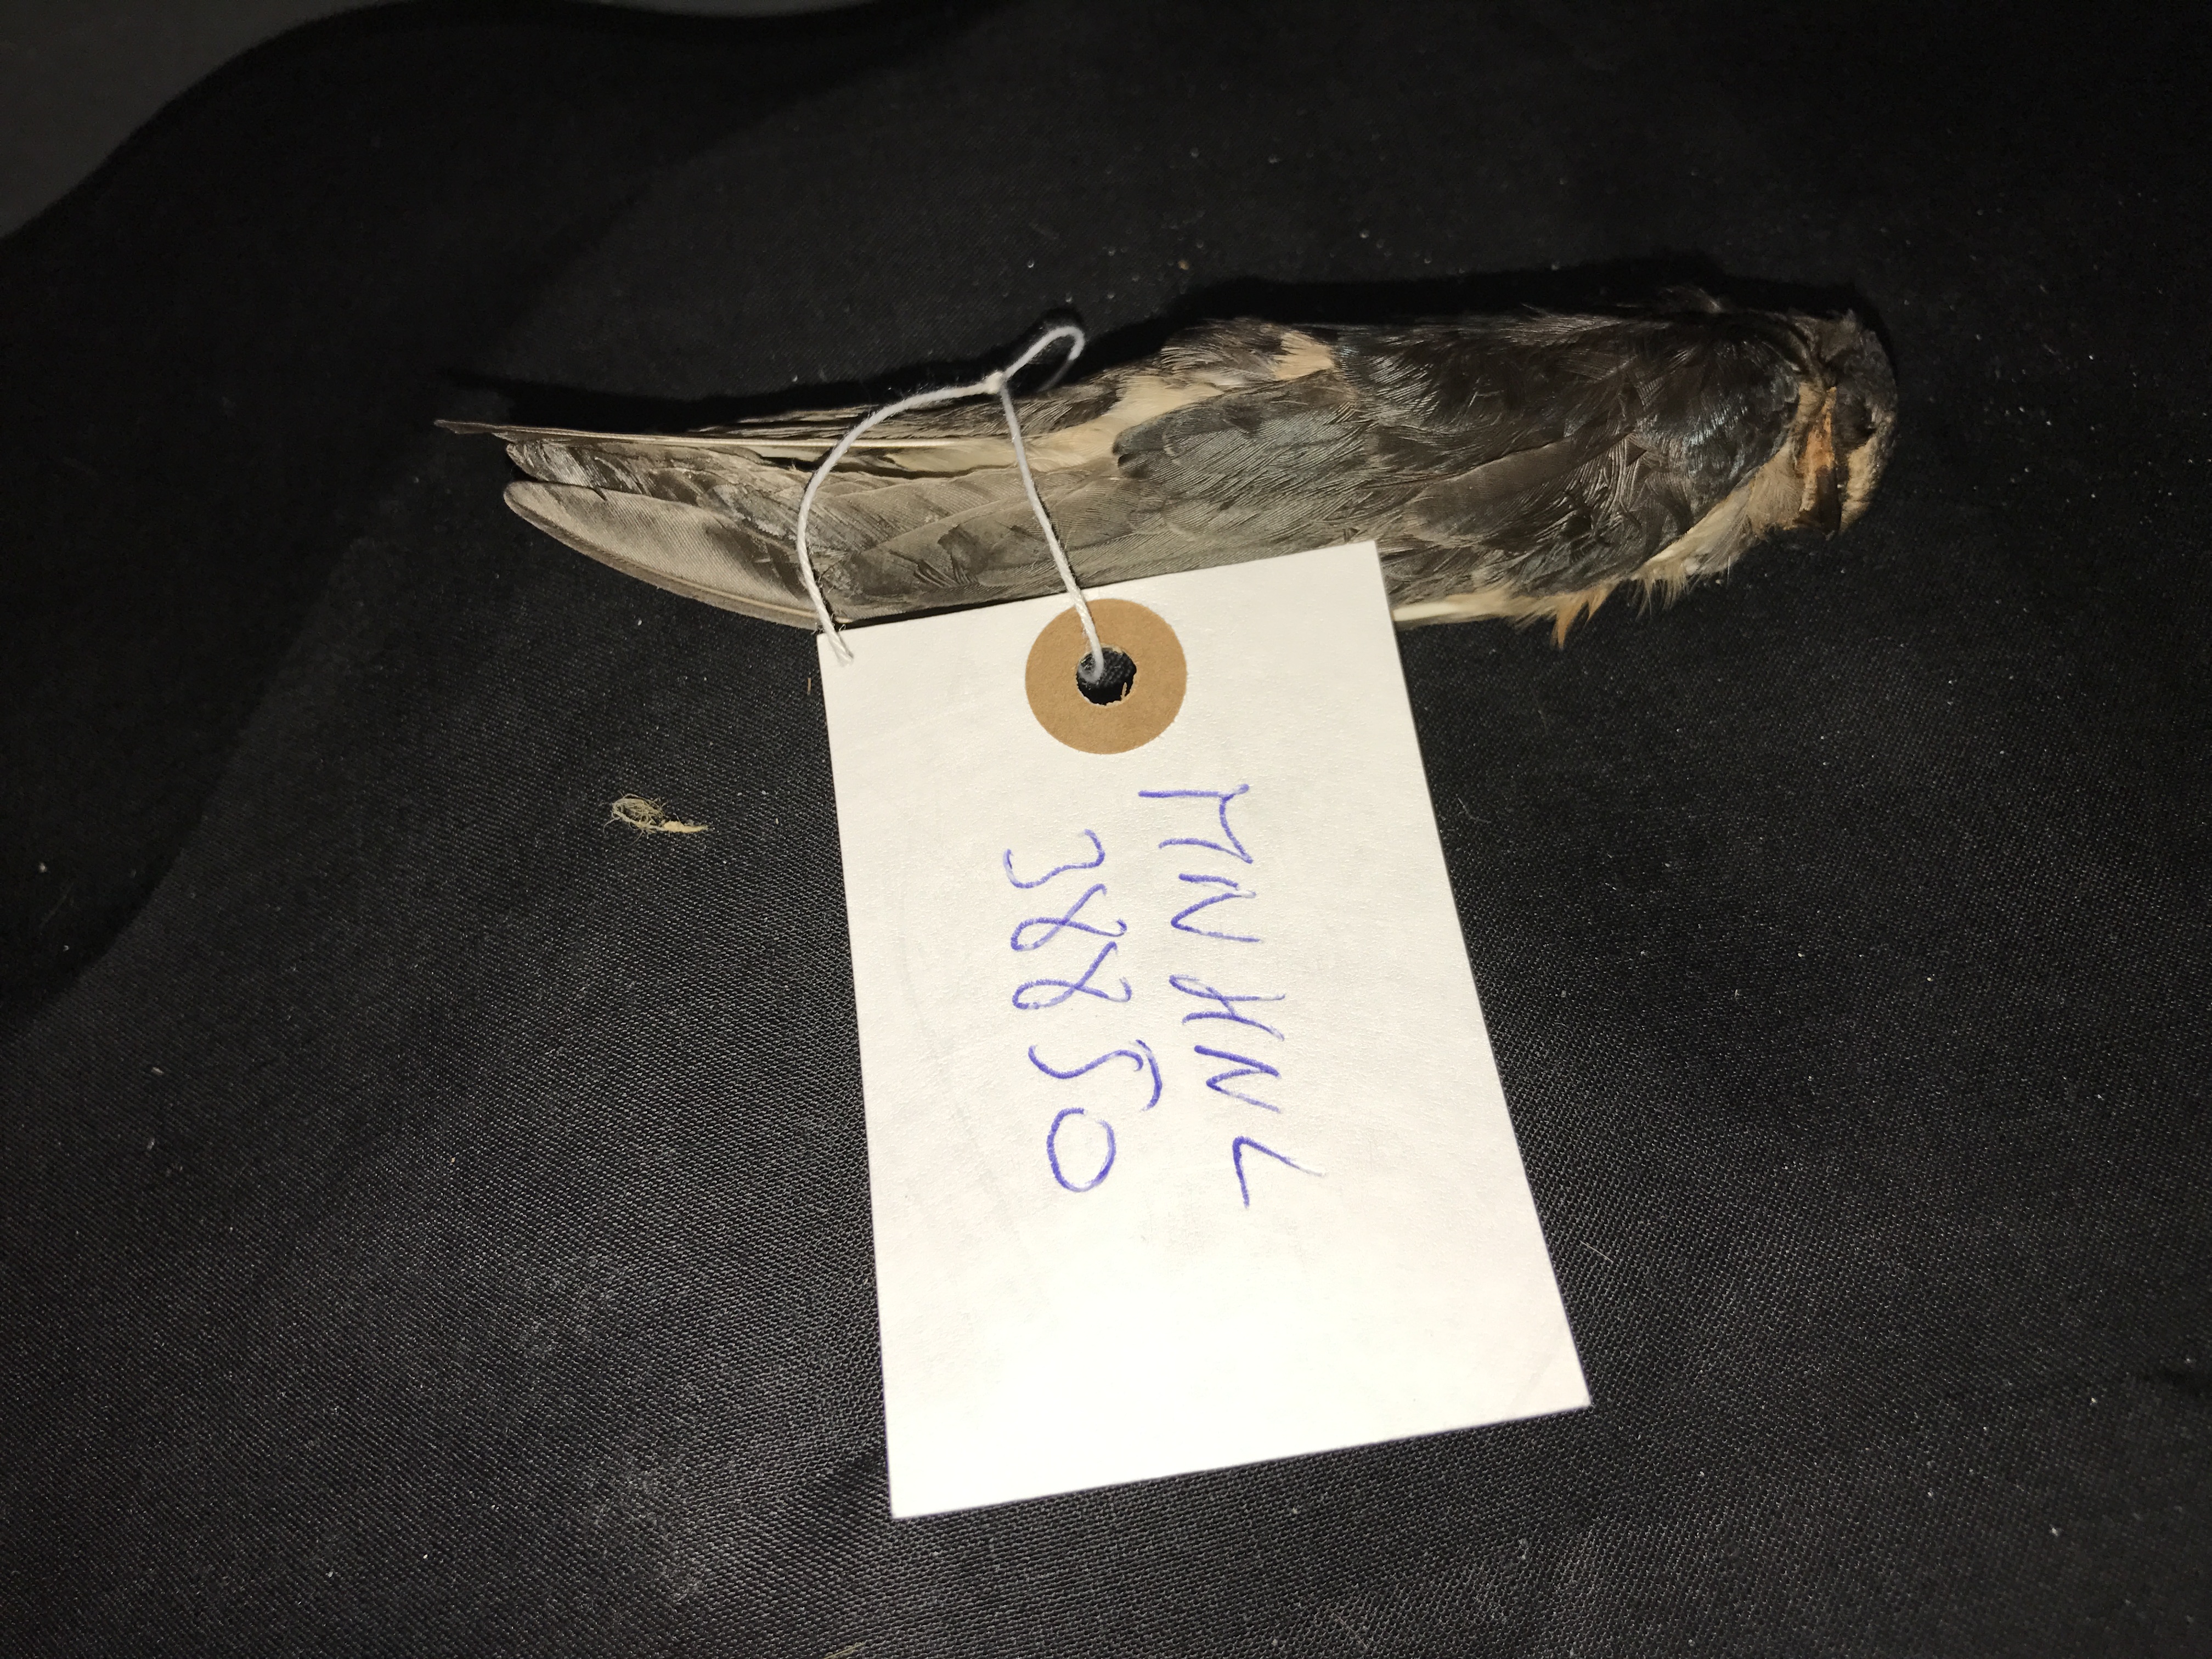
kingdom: Animalia
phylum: Chordata
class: Aves
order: Passeriformes
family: Hirundinidae
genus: Hirundo
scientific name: Hirundo rustica
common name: Barn swallow
